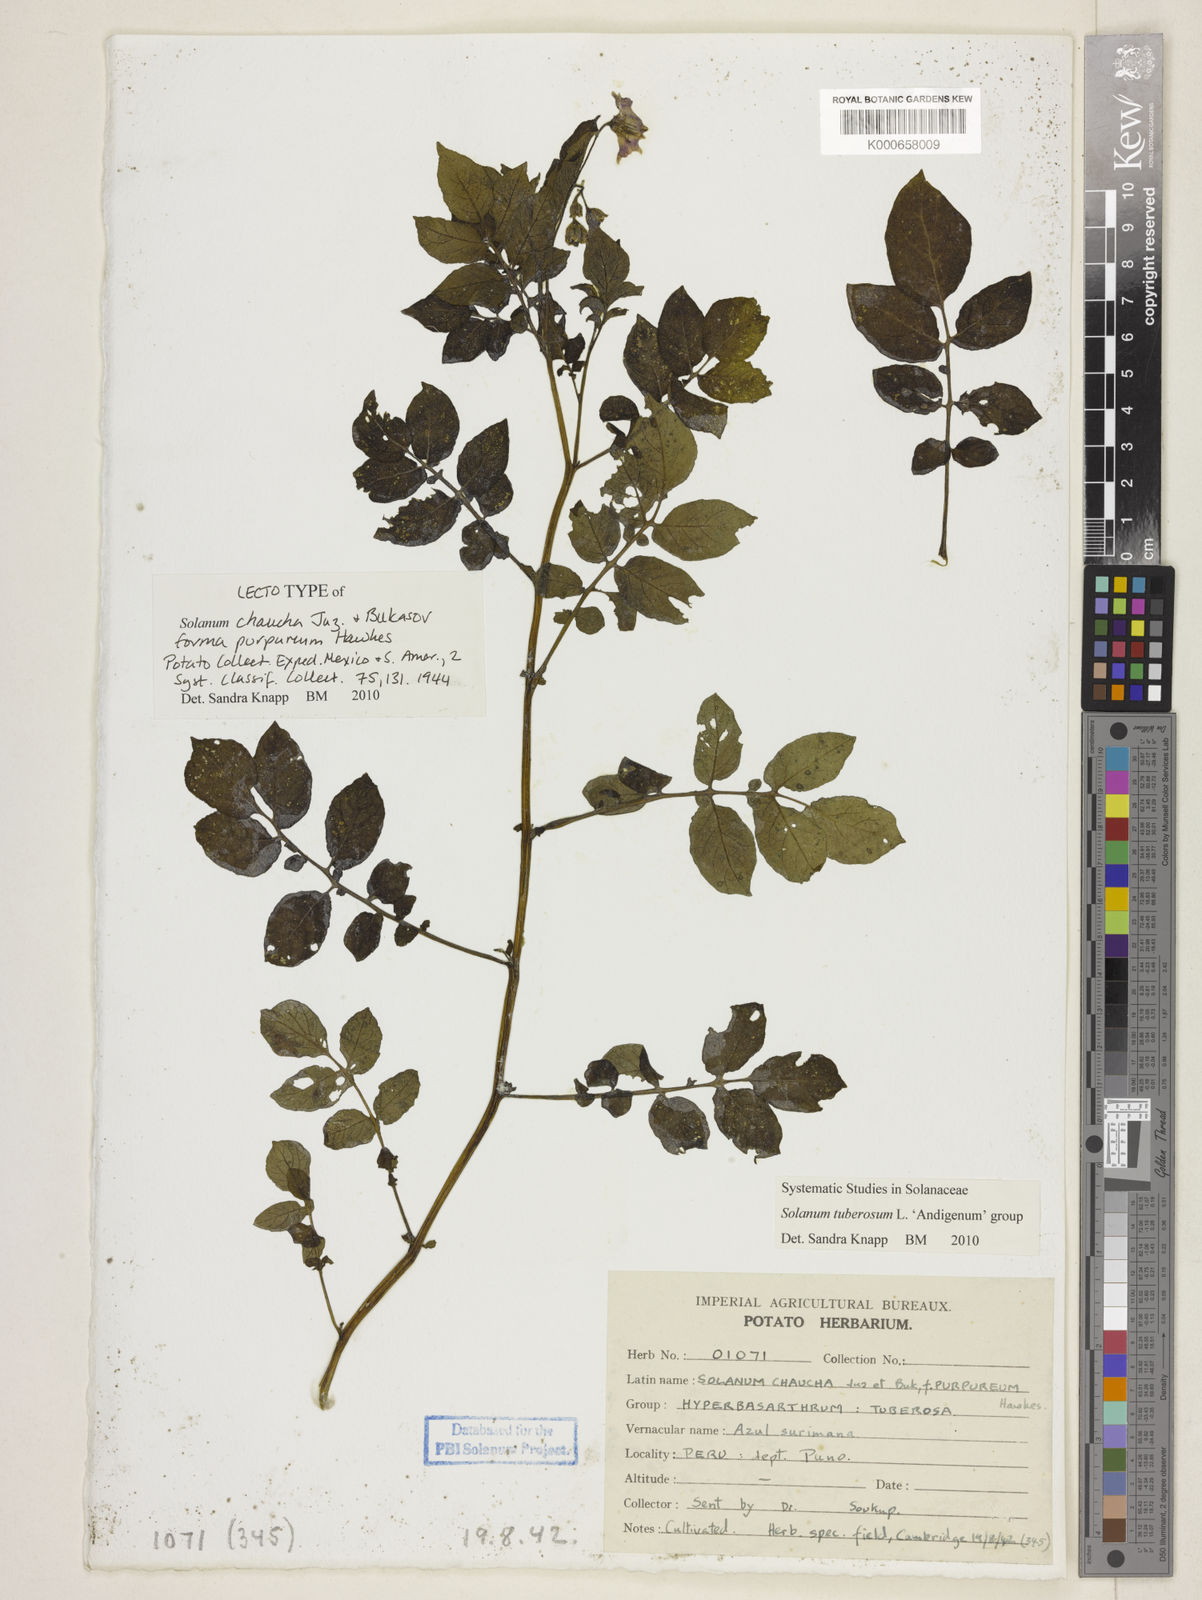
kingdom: Plantae
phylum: Tracheophyta
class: Magnoliopsida
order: Solanales
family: Solanaceae
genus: Solanum
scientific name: Solanum tuberosum
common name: Potato
